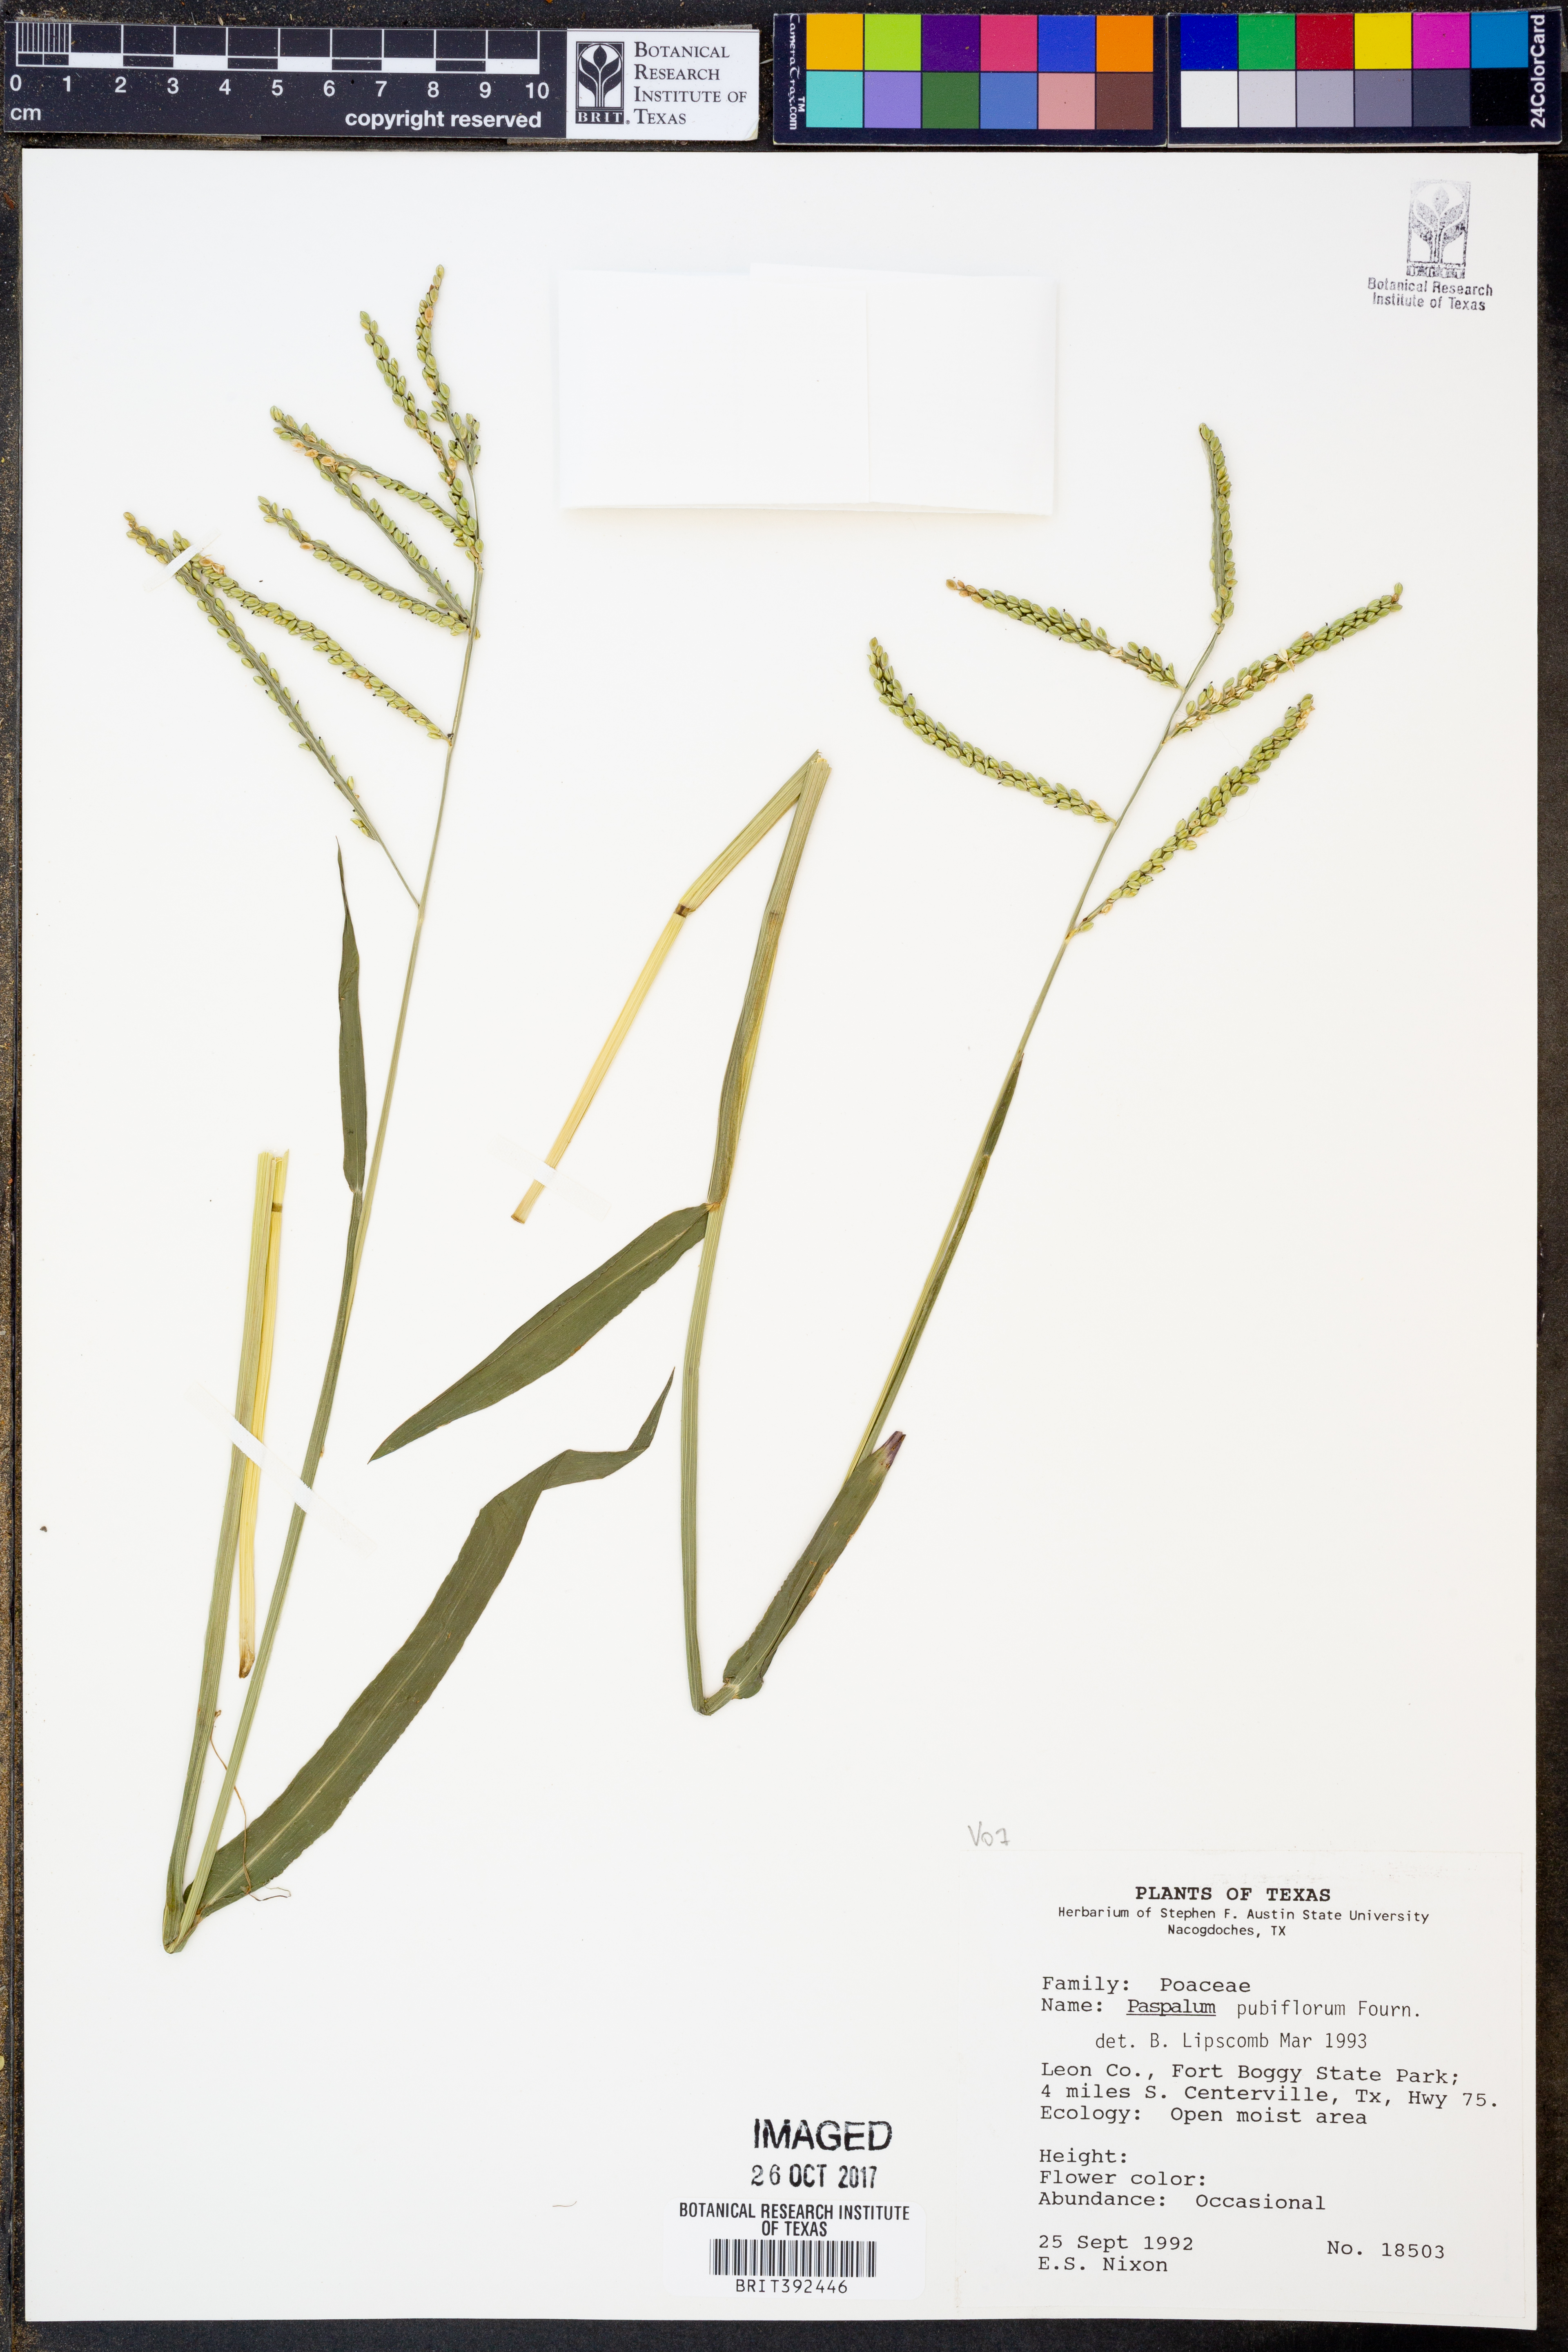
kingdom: Plantae
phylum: Tracheophyta
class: Liliopsida
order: Poales
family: Poaceae
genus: Paspalum
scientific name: Paspalum pubiflorum
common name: Hairy-seed paspalum
